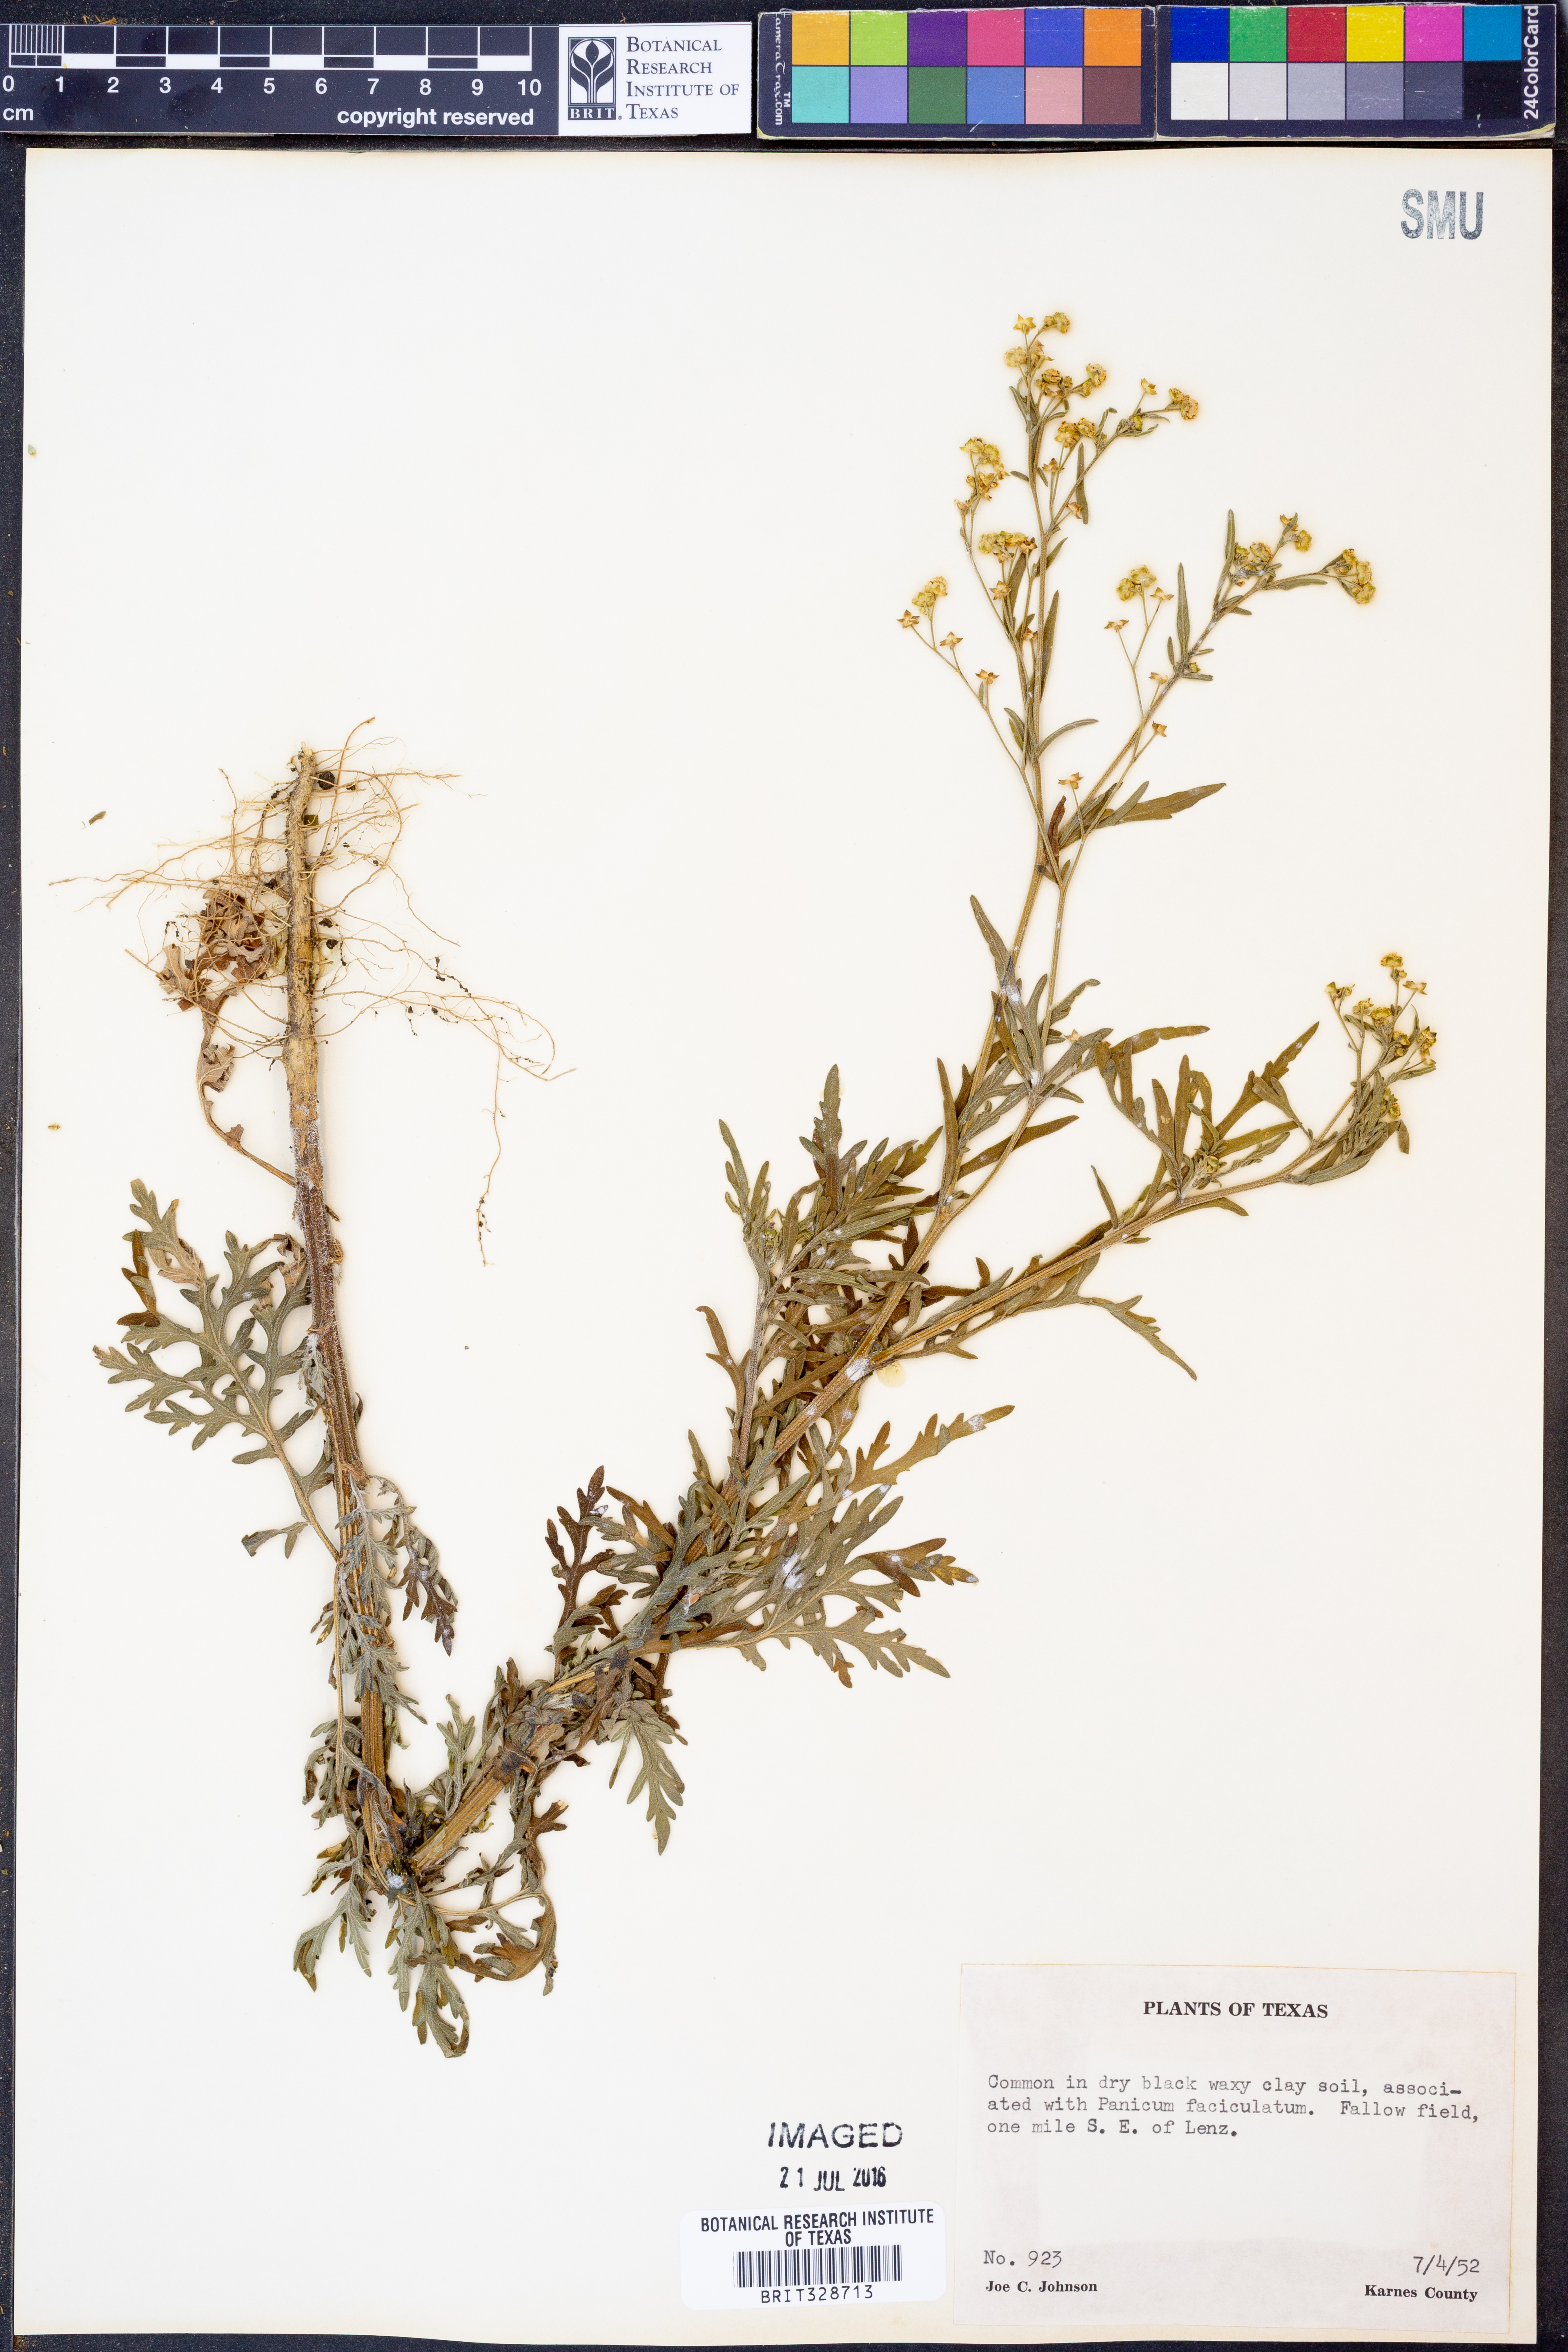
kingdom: Plantae
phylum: Tracheophyta
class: Magnoliopsida
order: Asterales
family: Asteraceae
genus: Parthenium
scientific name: Parthenium hysterophorus
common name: Santa maria feverfew
